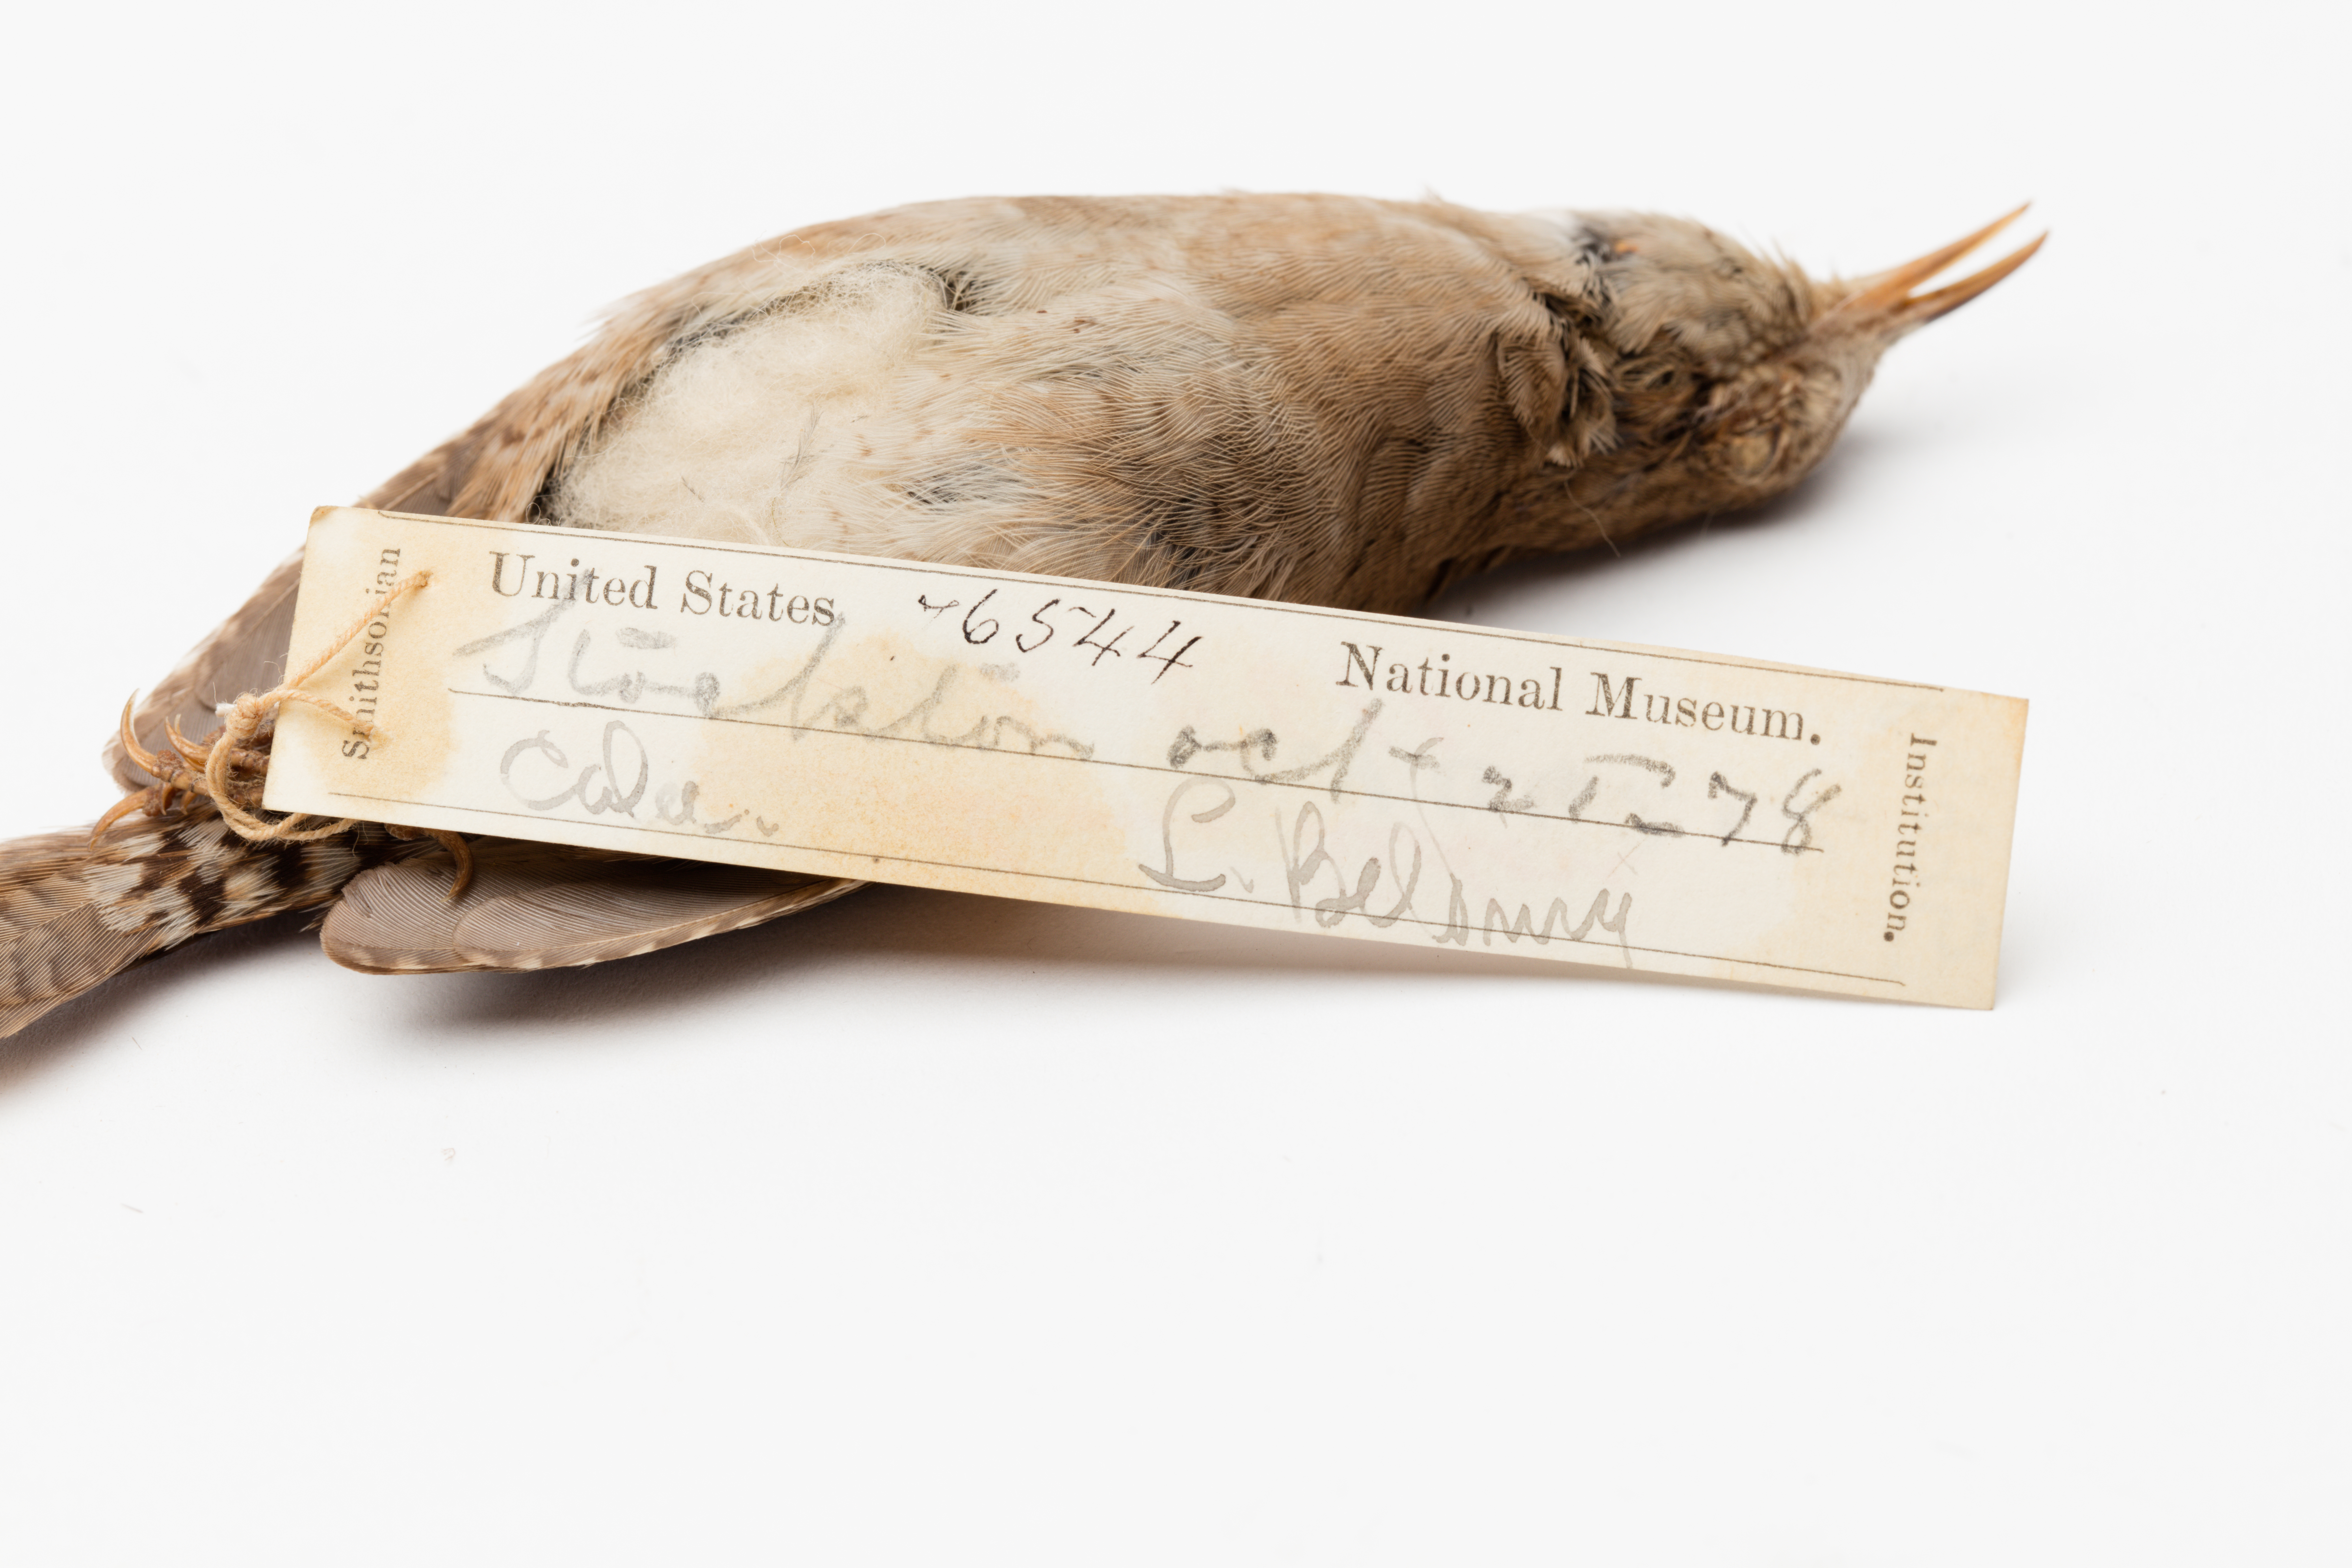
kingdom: Animalia
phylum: Chordata
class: Aves
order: Passeriformes
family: Troglodytidae
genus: Troglodytes
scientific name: Troglodytes aedon
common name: House wren
